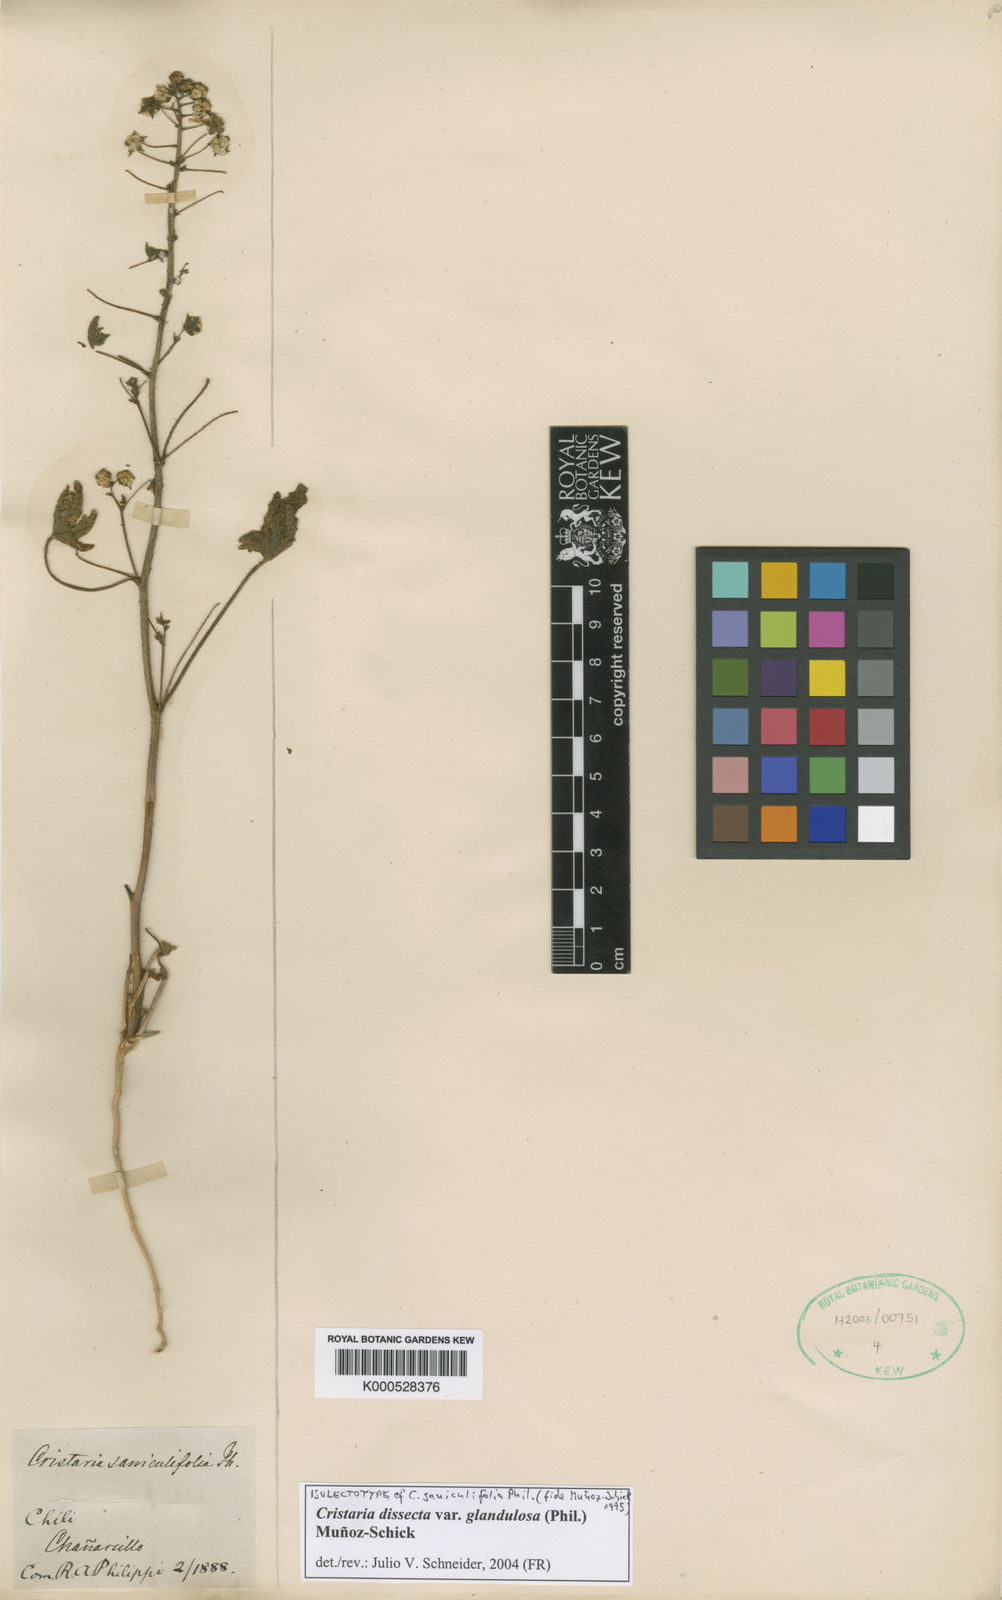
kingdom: Plantae
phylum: Tracheophyta
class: Magnoliopsida
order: Malvales
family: Malvaceae
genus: Cristaria
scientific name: Cristaria dissecta
